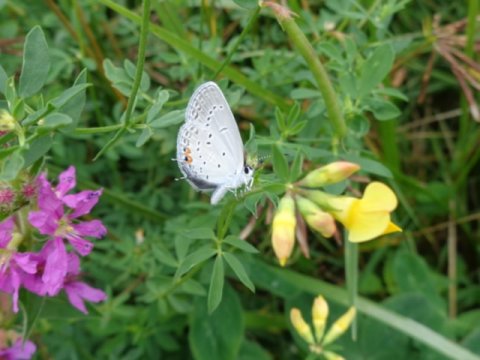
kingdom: Animalia
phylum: Arthropoda
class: Insecta
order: Lepidoptera
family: Lycaenidae
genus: Elkalyce
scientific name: Elkalyce comyntas
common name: Eastern Tailed-Blue
